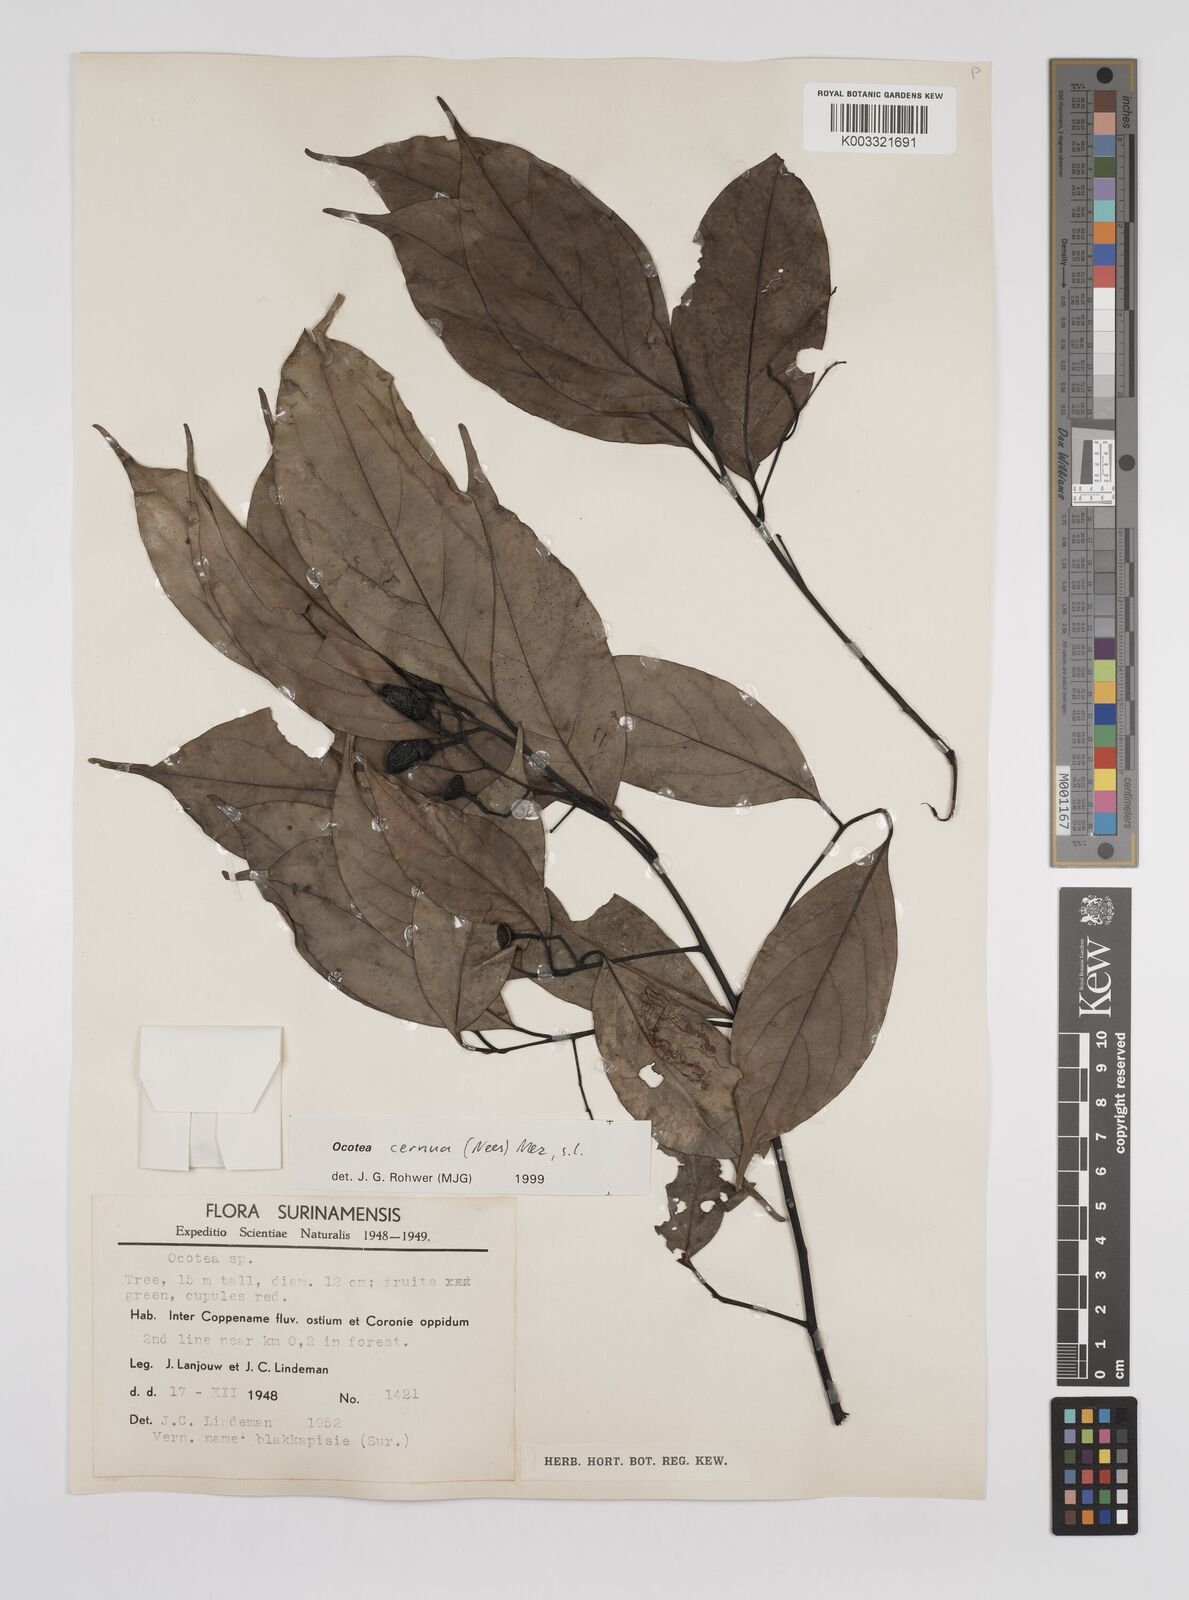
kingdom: Plantae
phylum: Tracheophyta
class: Magnoliopsida
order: Laurales
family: Lauraceae
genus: Ocotea
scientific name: Ocotea leptobotra
